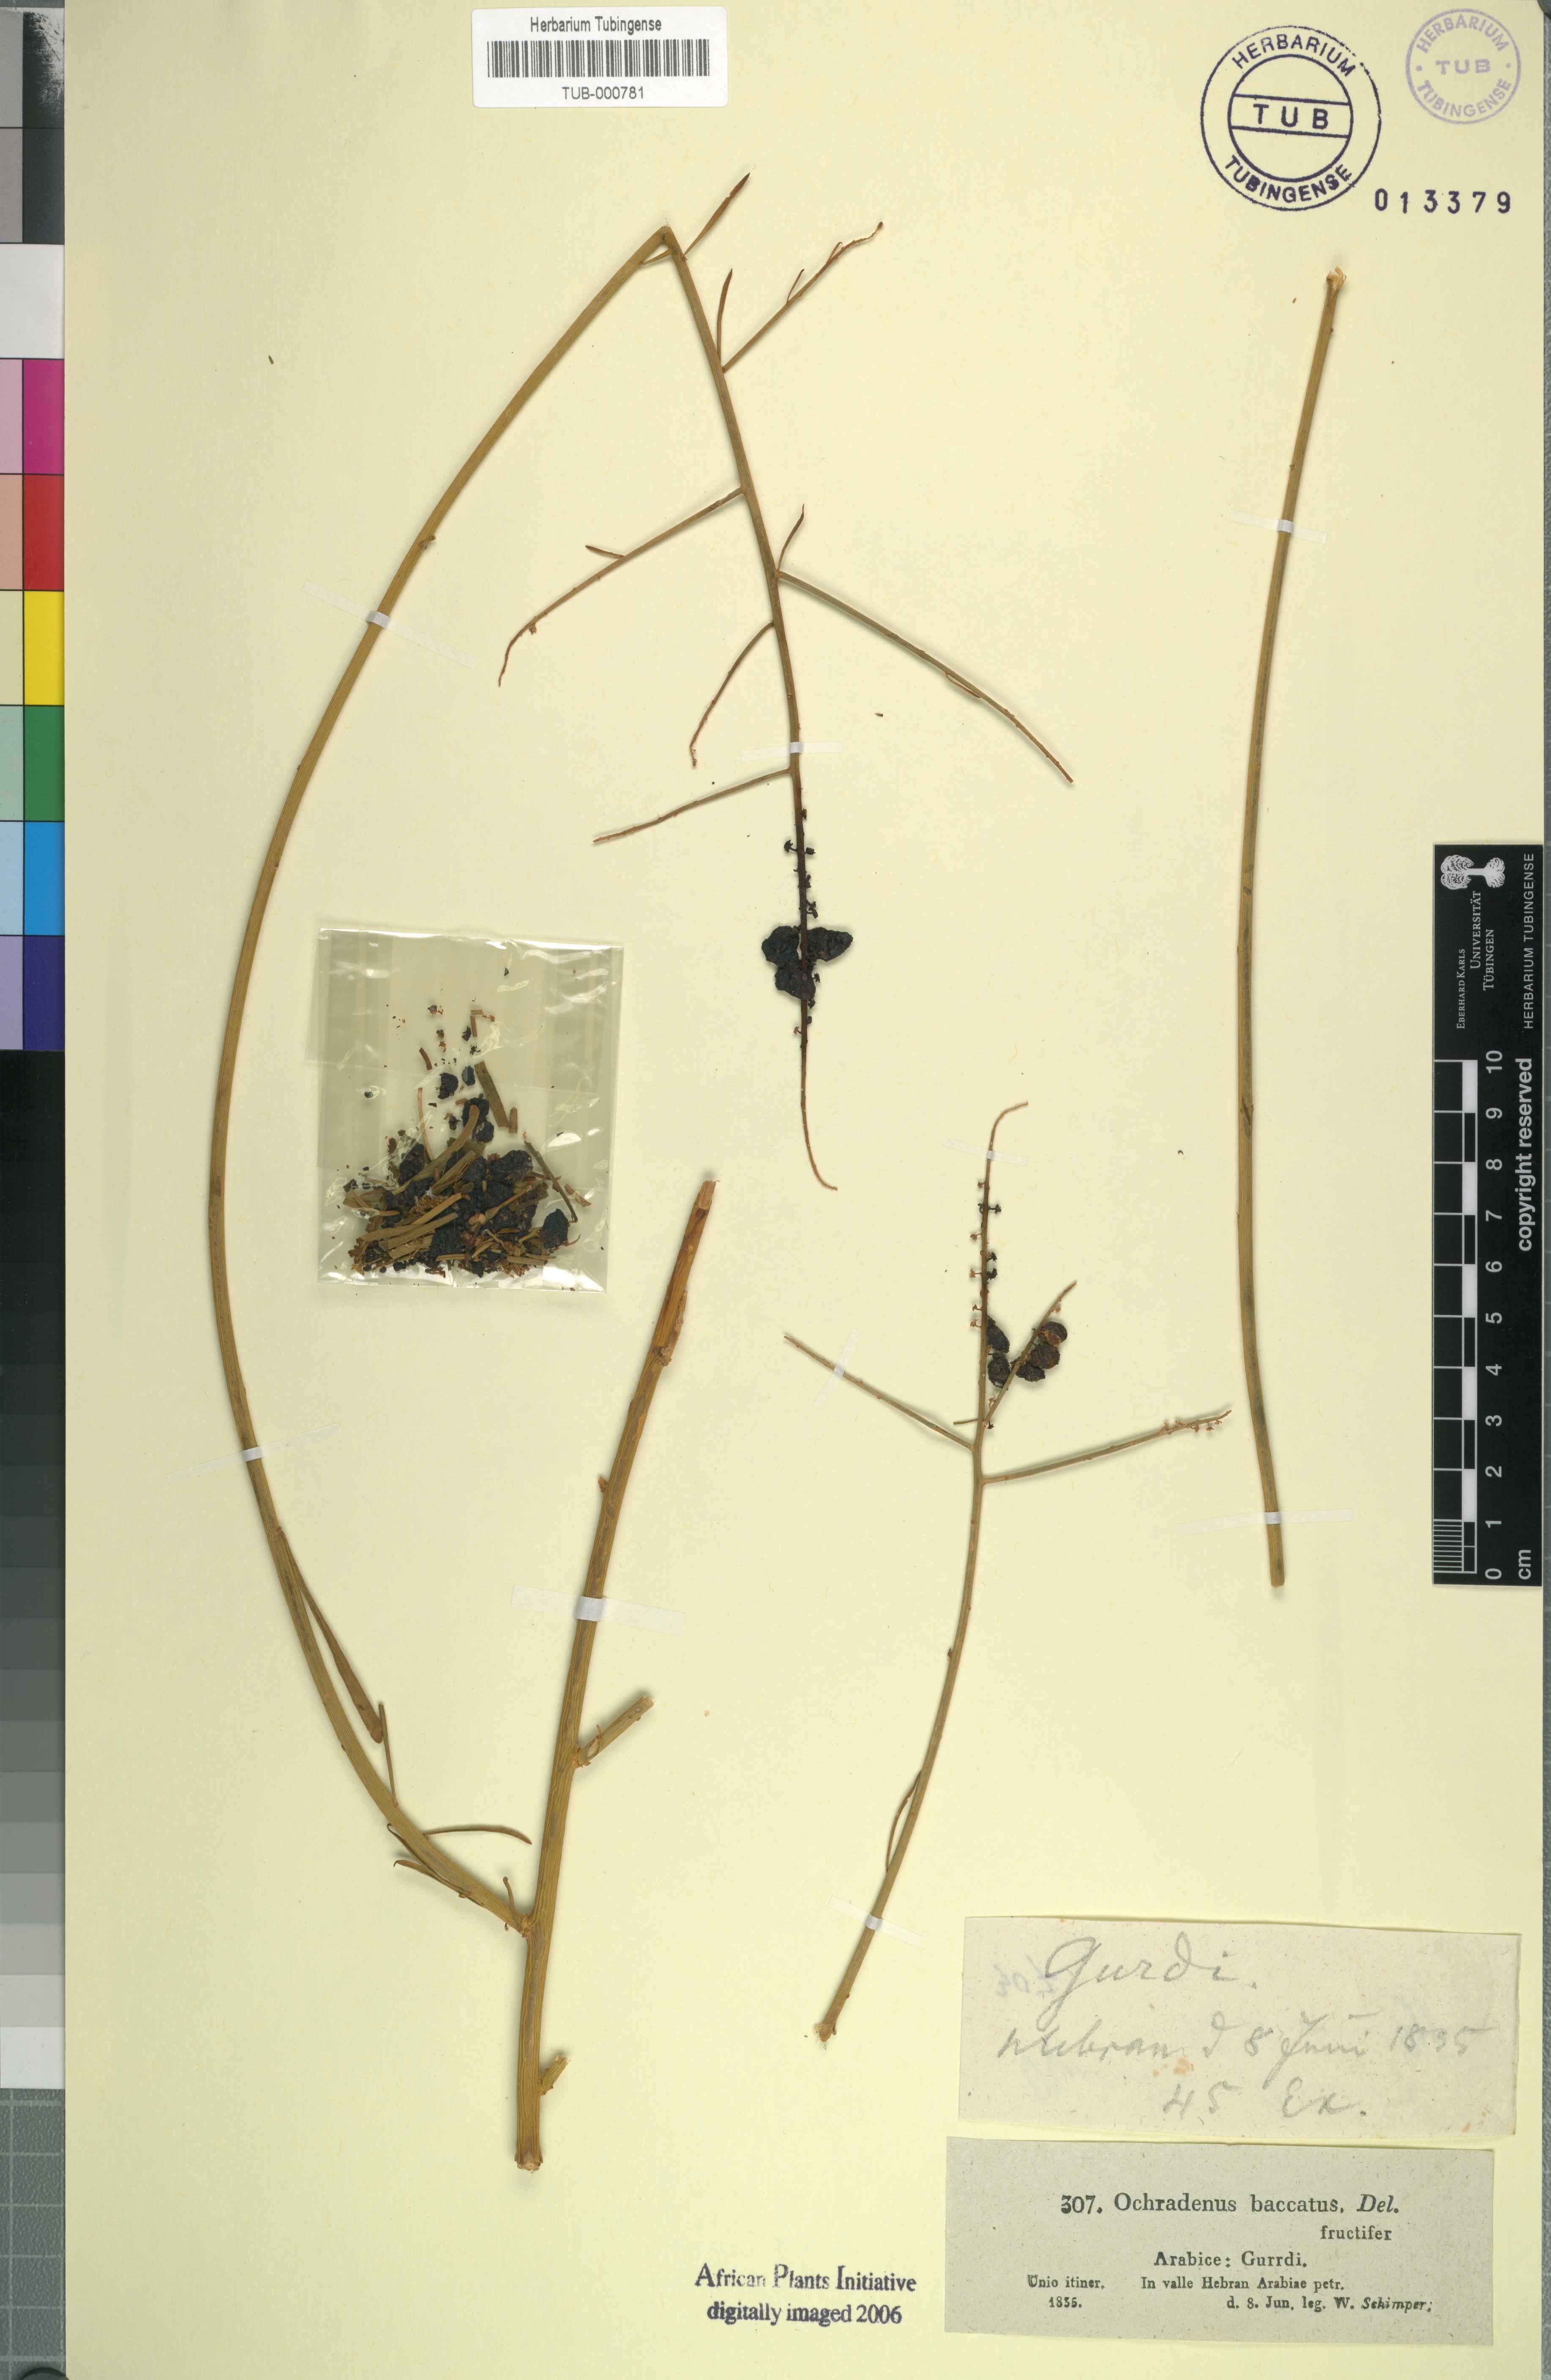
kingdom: Plantae
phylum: Tracheophyta
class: Magnoliopsida
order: Brassicales
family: Resedaceae
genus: Ochradenus
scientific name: Ochradenus baccatus
